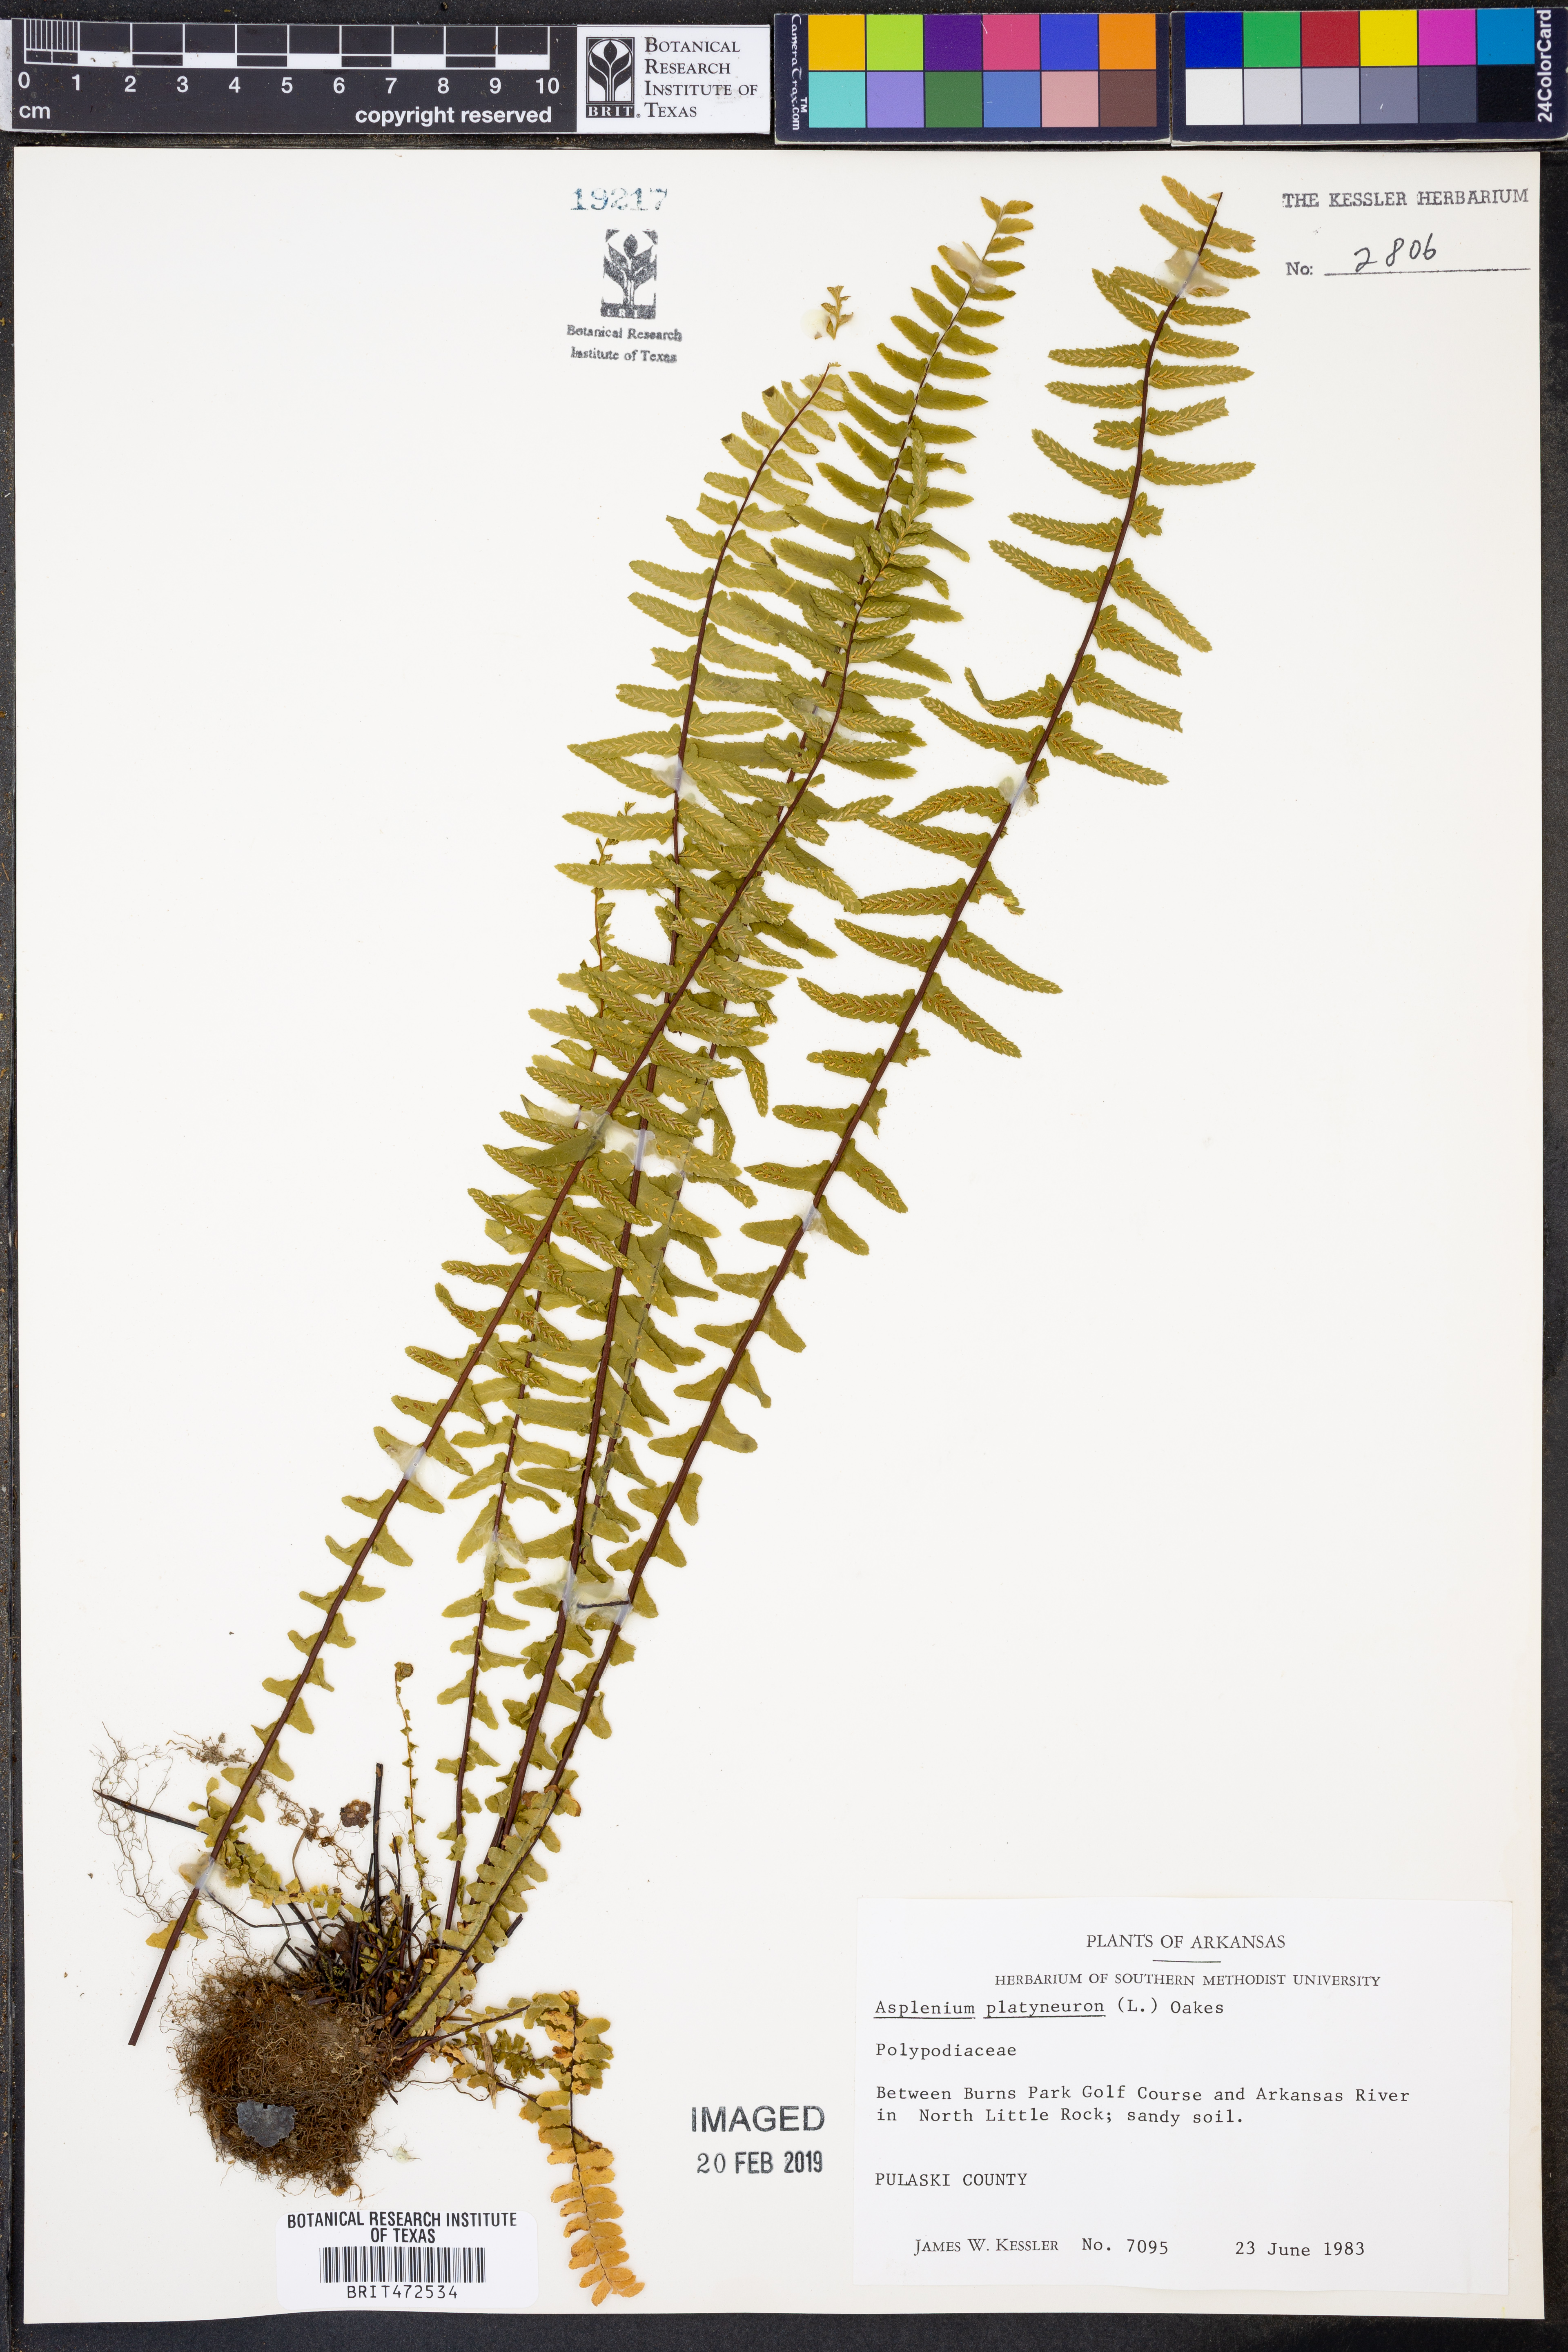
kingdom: Plantae
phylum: Tracheophyta
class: Polypodiopsida
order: Polypodiales
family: Aspleniaceae
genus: Asplenium
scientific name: Asplenium platyneuron
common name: Ebony spleenwort
